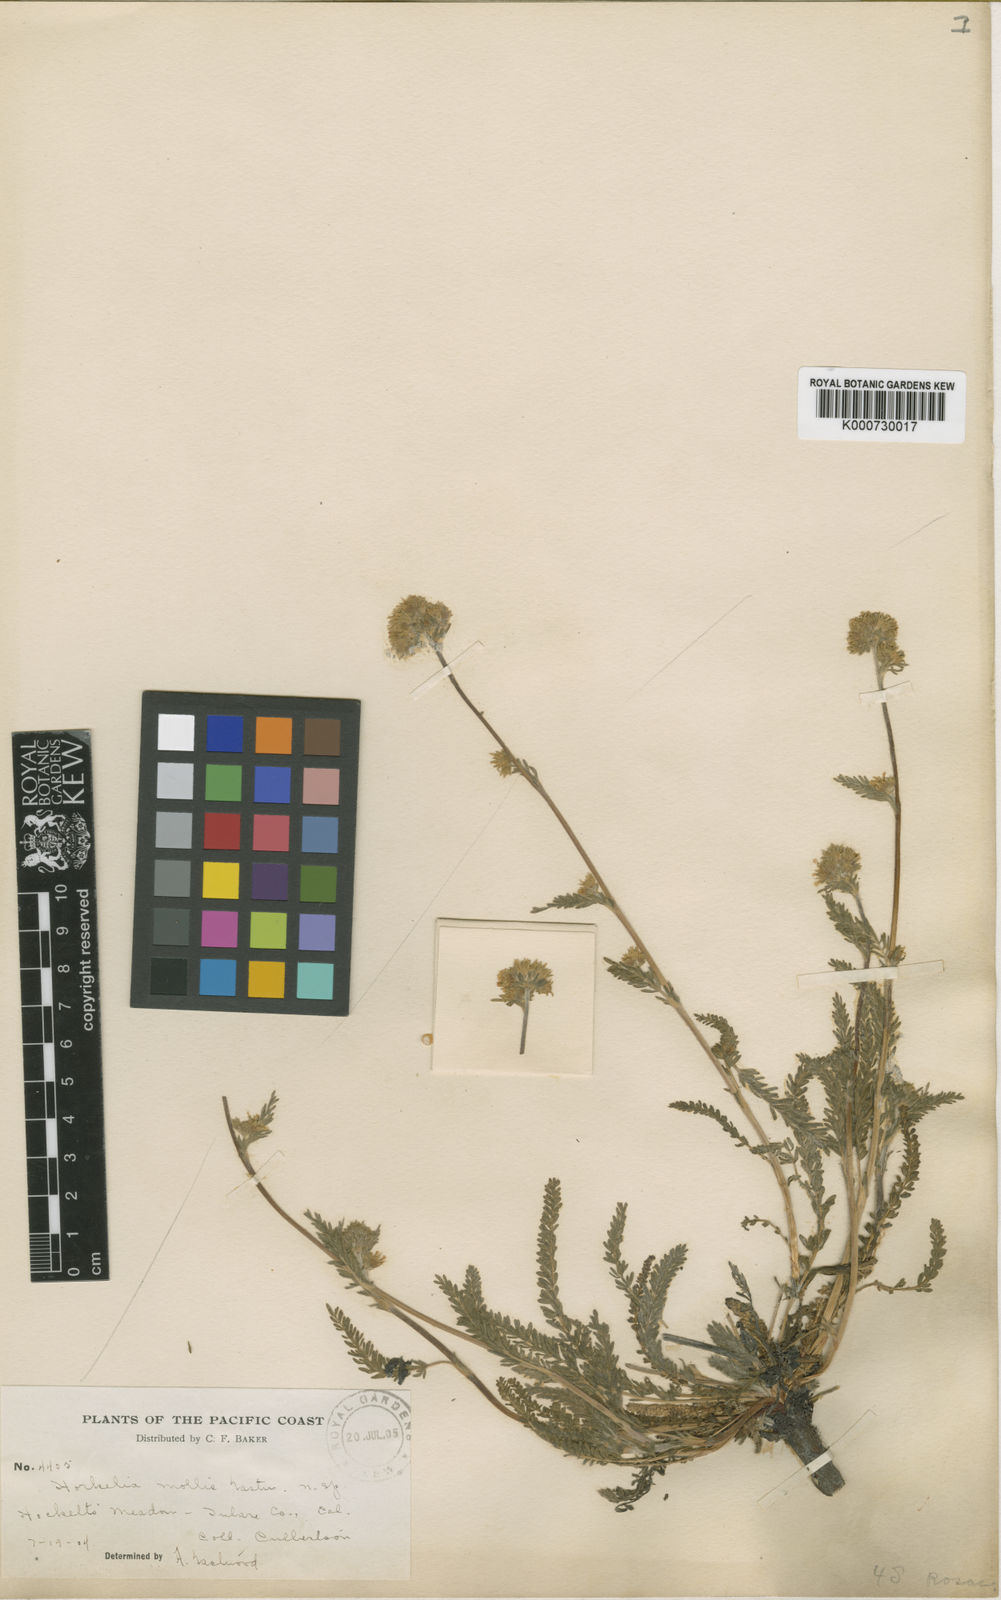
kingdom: Plantae
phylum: Tracheophyta
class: Magnoliopsida
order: Rosales
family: Rosaceae
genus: Potentilla
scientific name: Potentilla campestris
